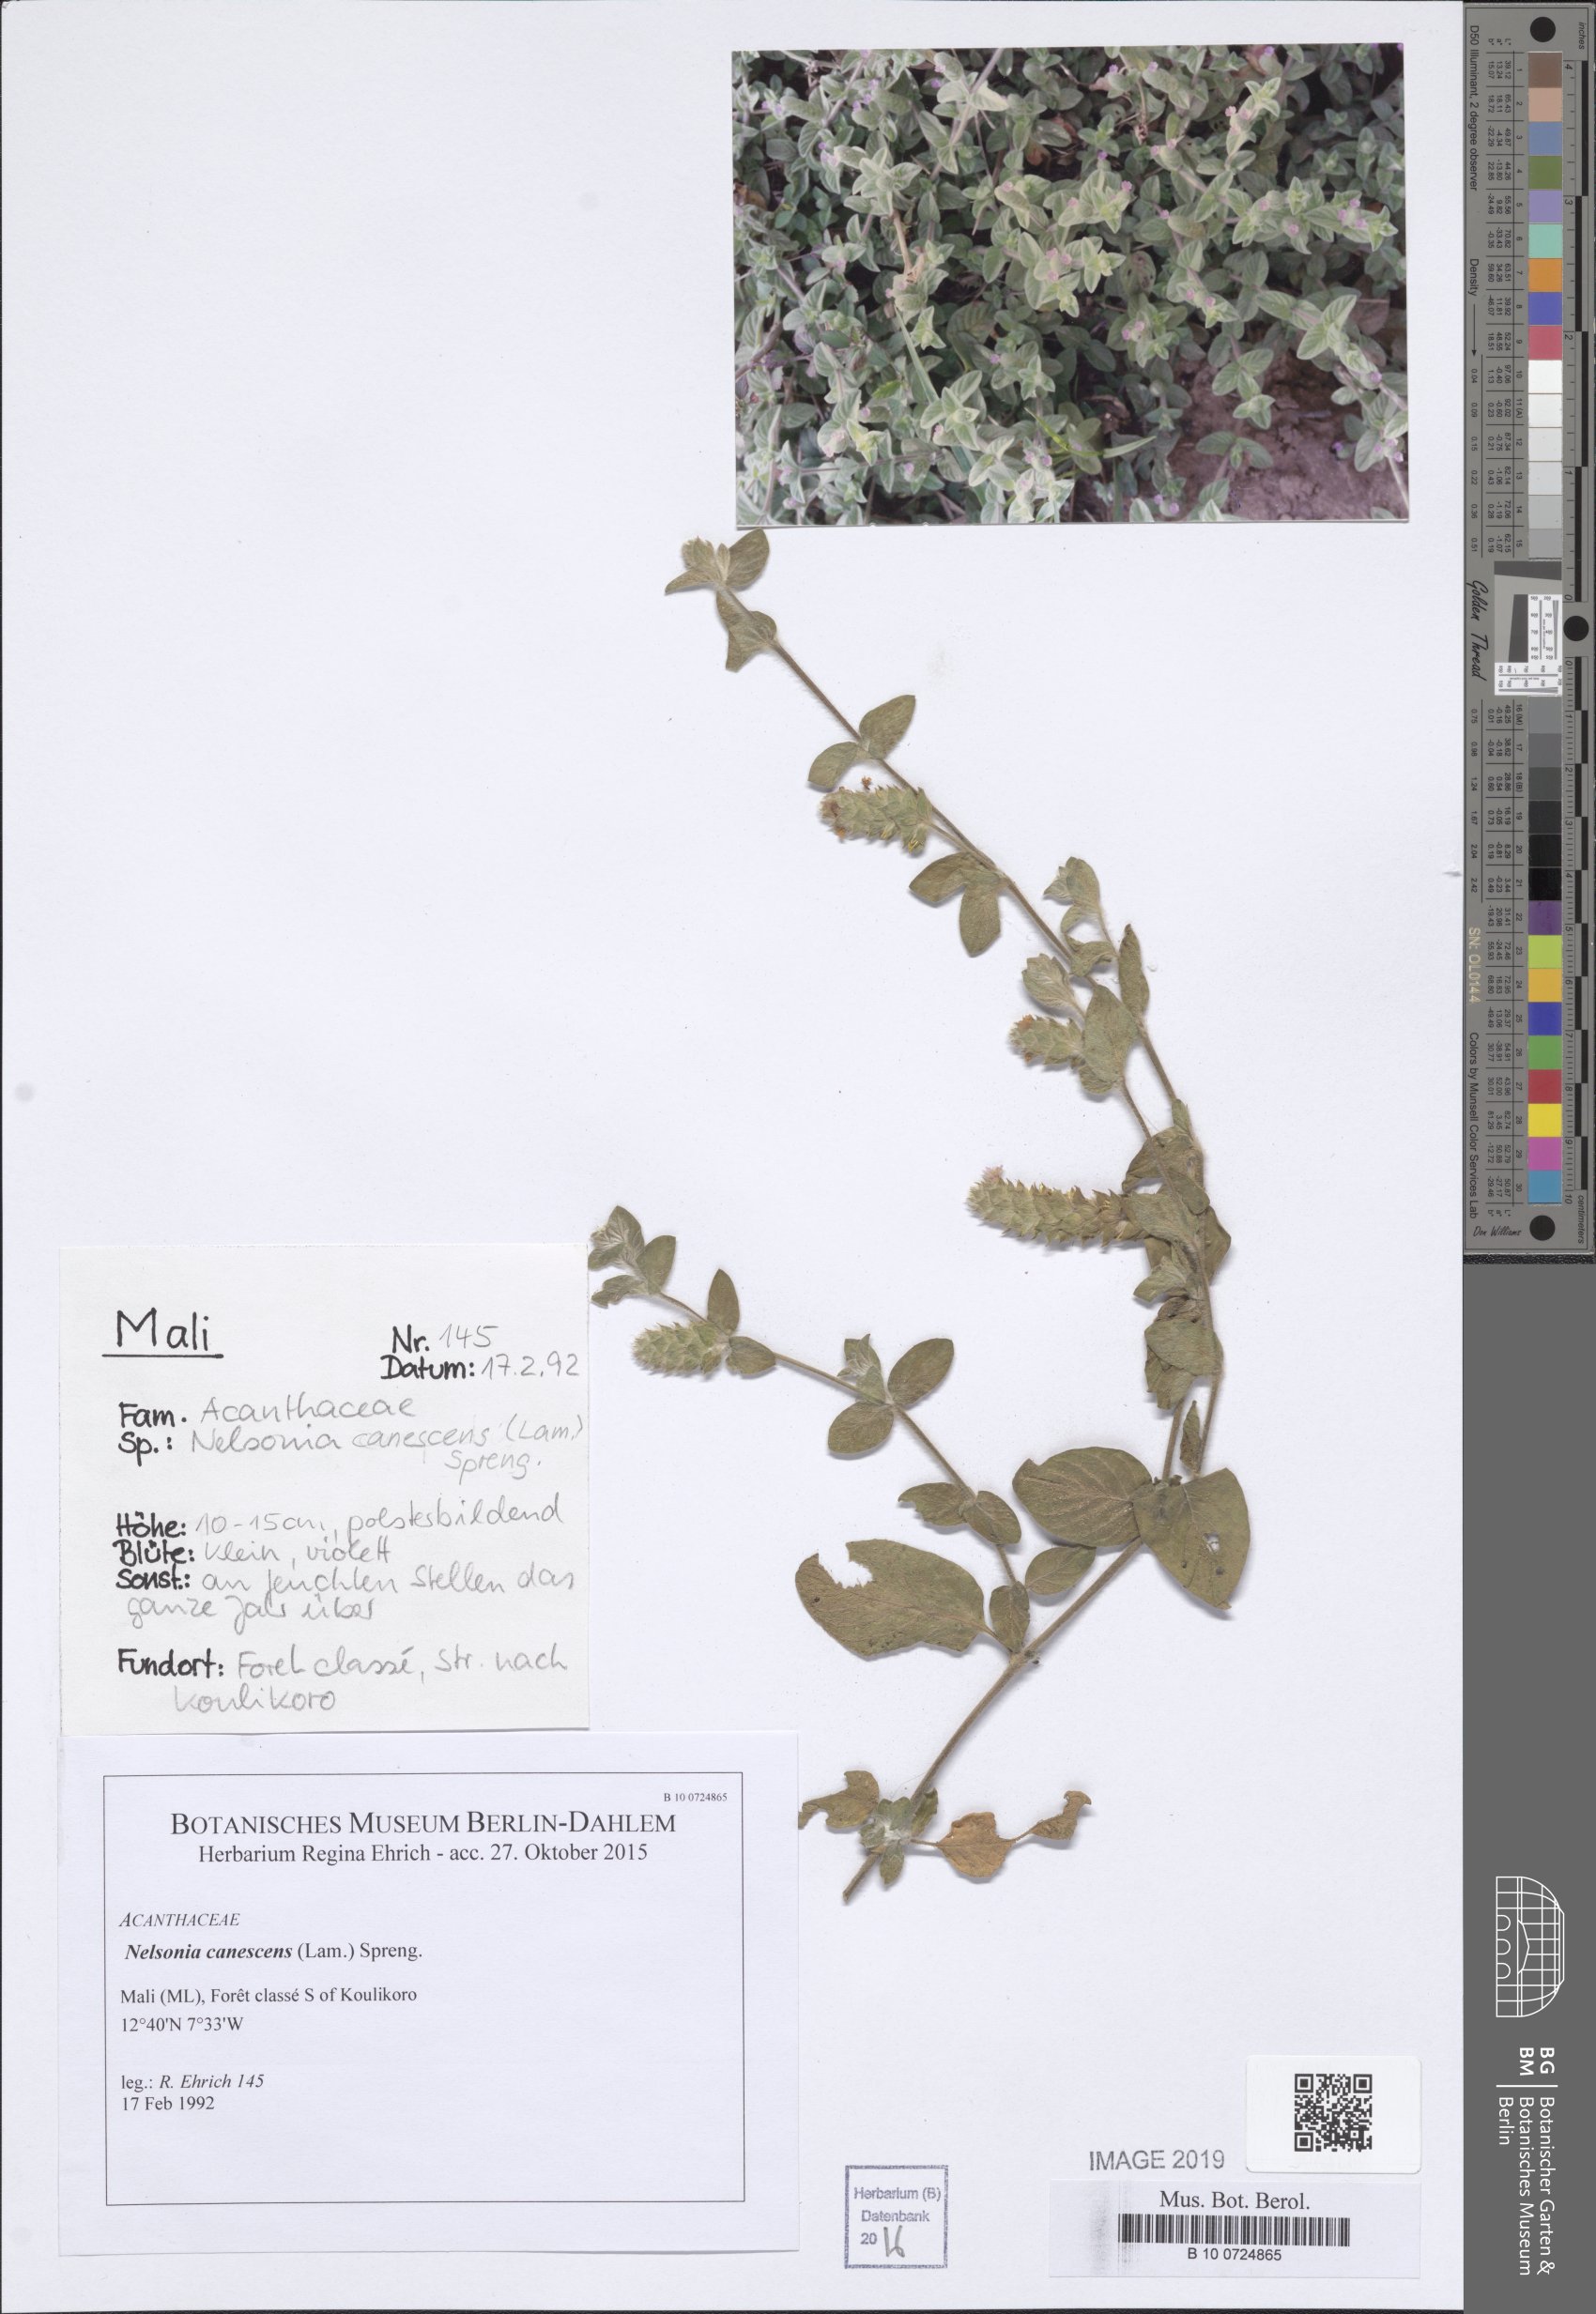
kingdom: Plantae
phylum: Tracheophyta
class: Magnoliopsida
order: Lamiales
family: Acanthaceae
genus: Nelsonia
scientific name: Nelsonia canescens
